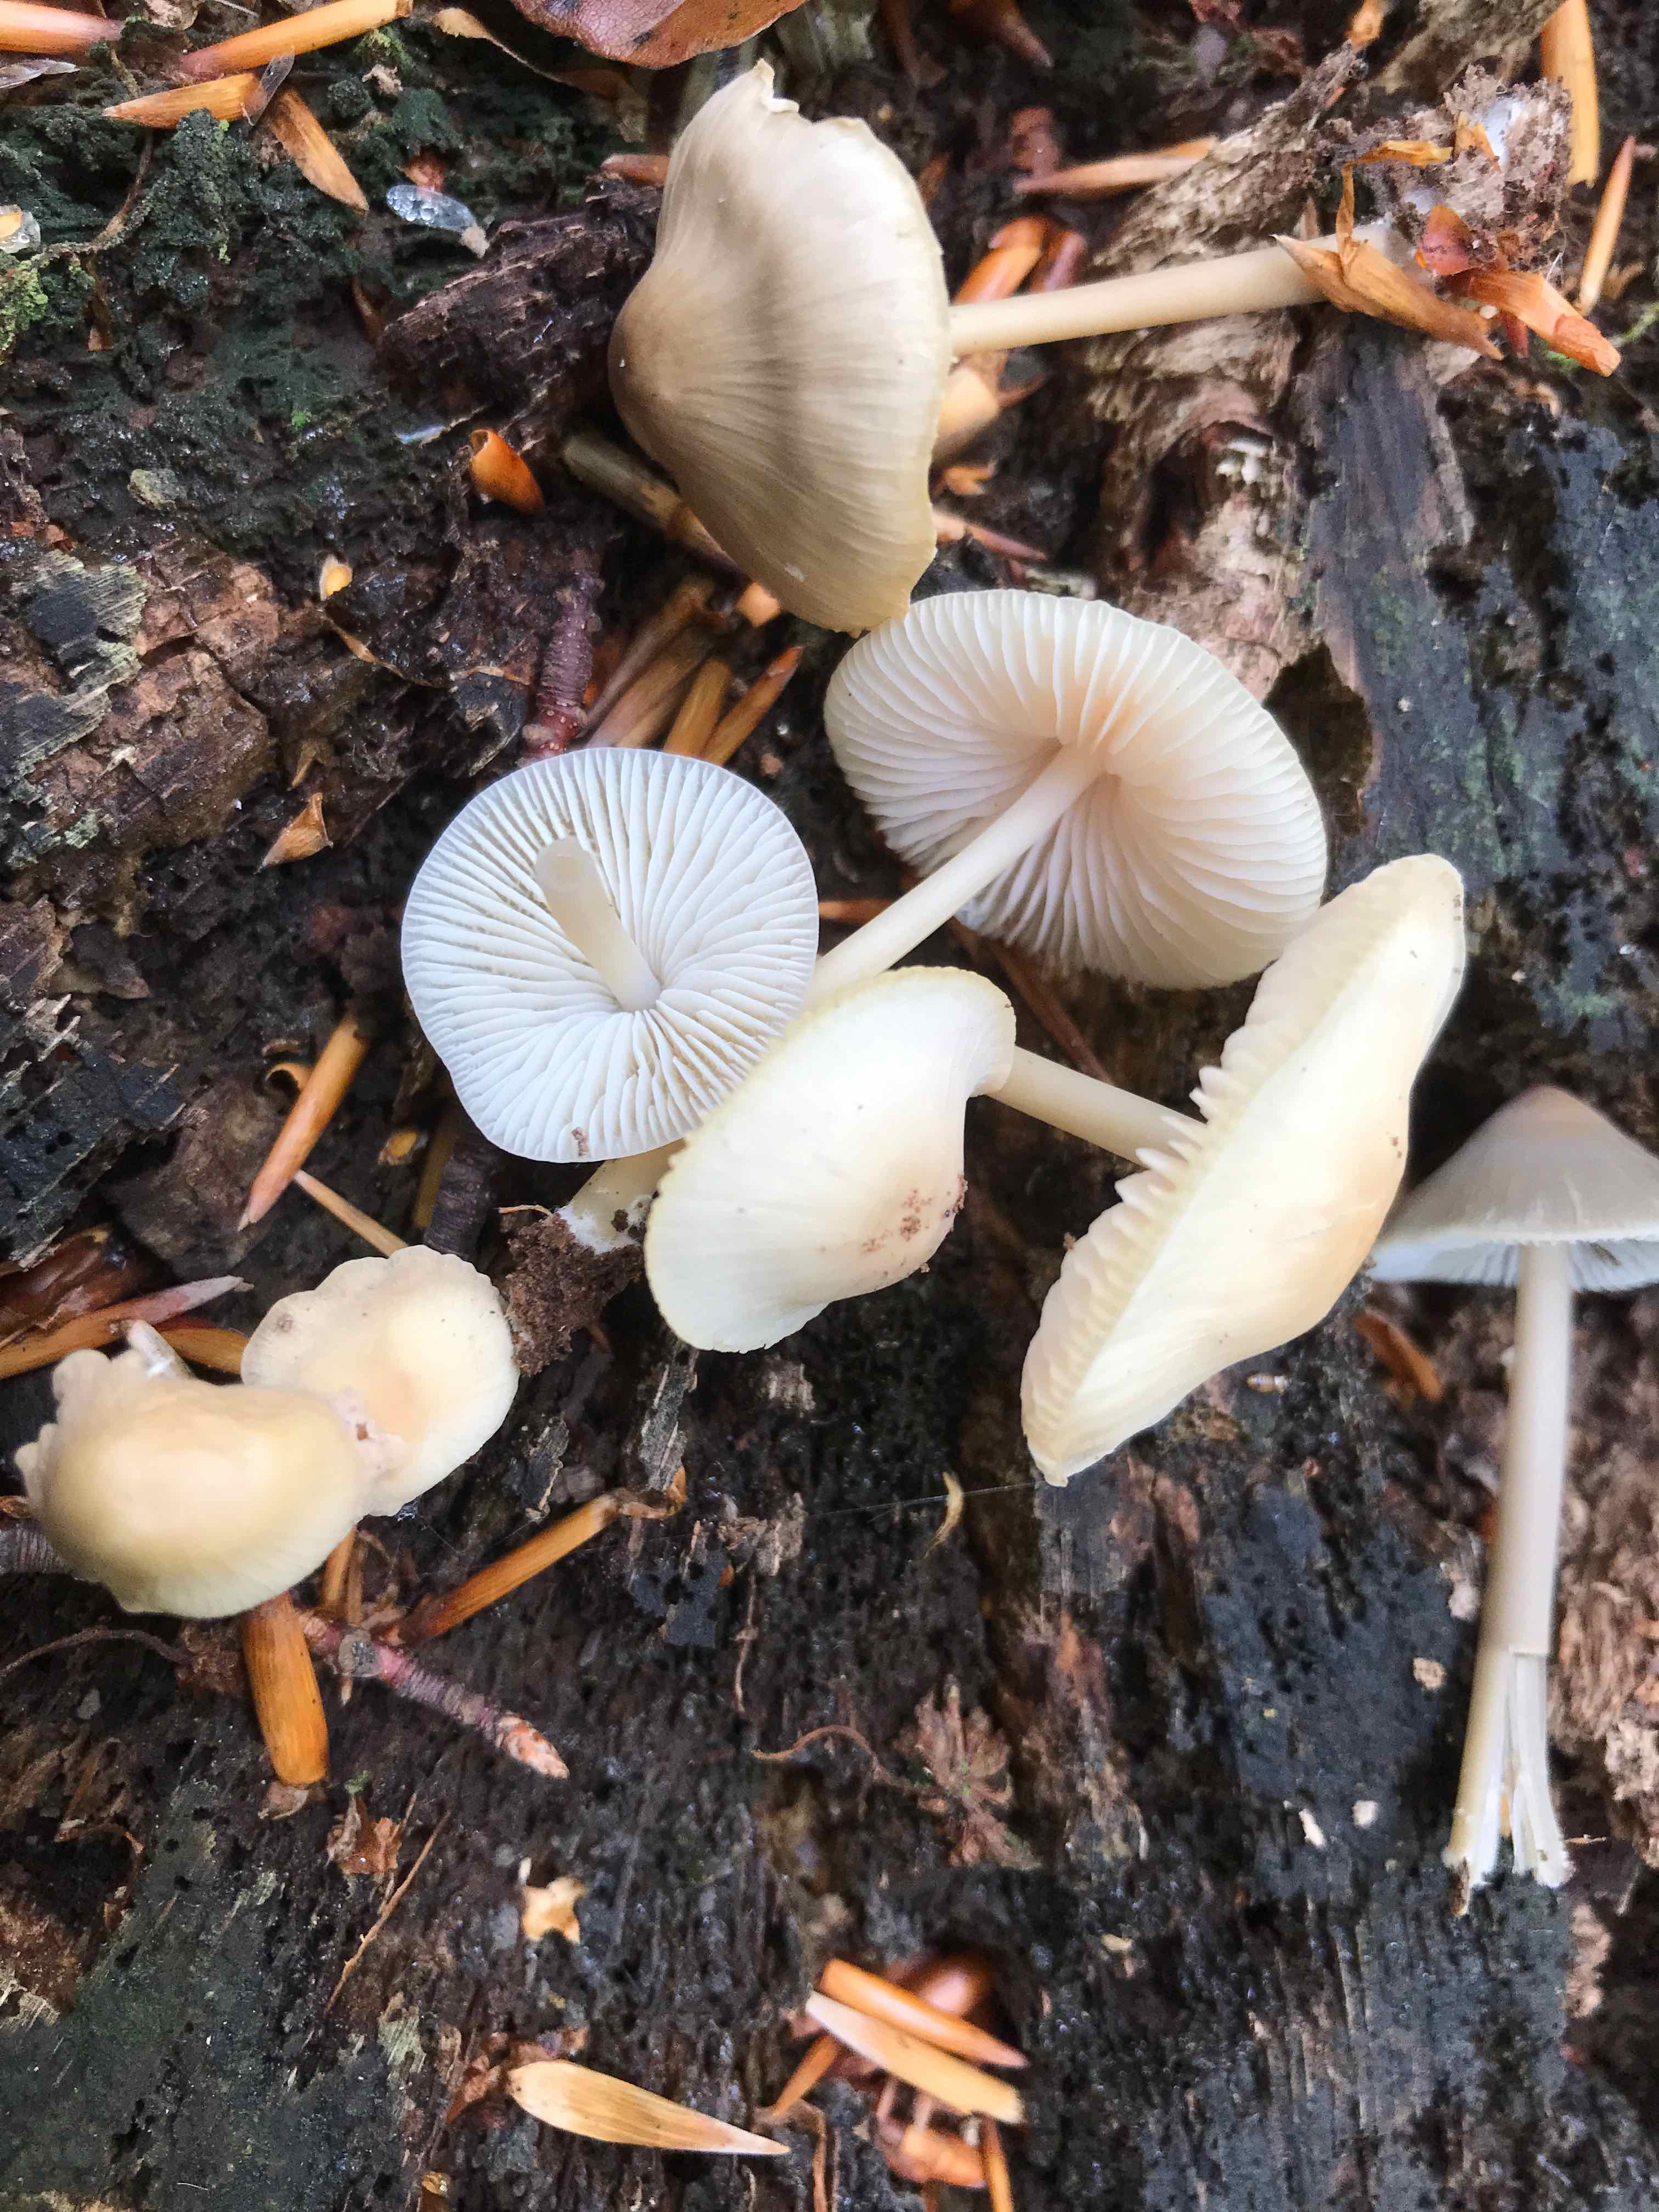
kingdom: Fungi
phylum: Basidiomycota
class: Agaricomycetes
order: Agaricales
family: Mycenaceae
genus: Mycena
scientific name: Mycena galericulata
